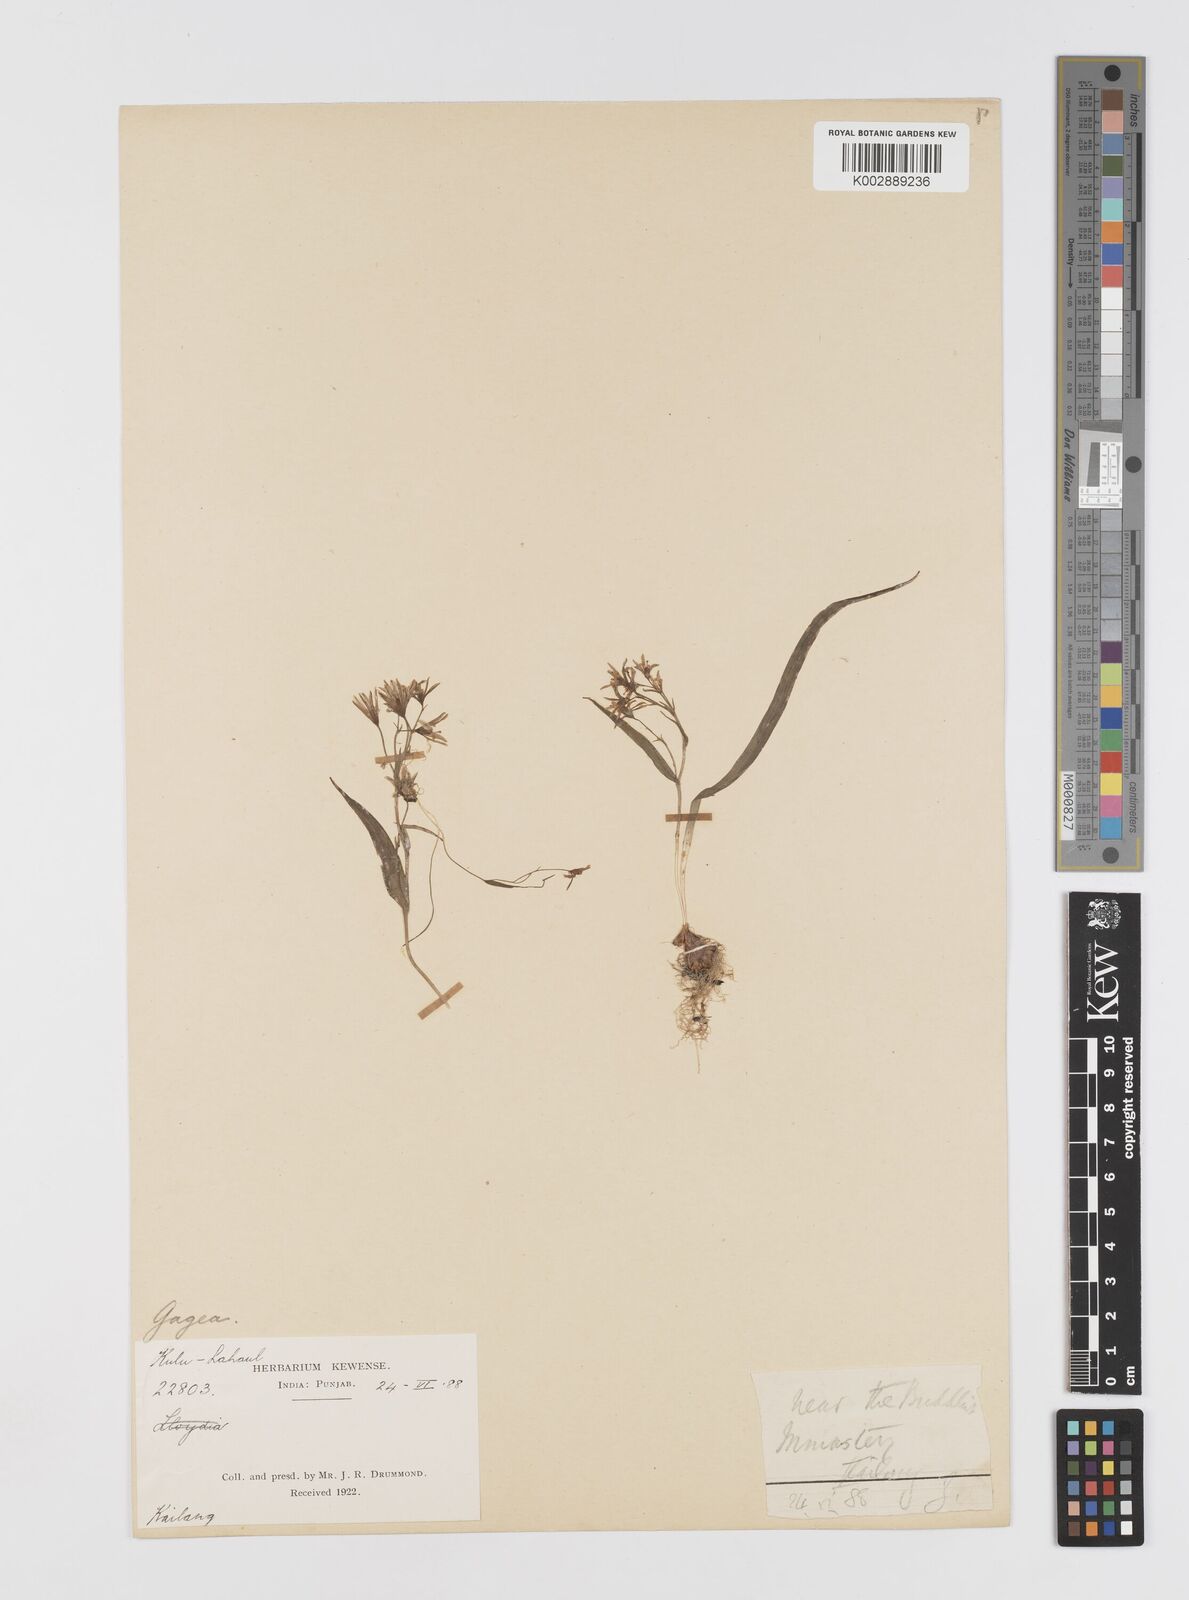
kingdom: Plantae
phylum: Tracheophyta
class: Liliopsida
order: Liliales
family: Liliaceae
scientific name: Liliaceae
